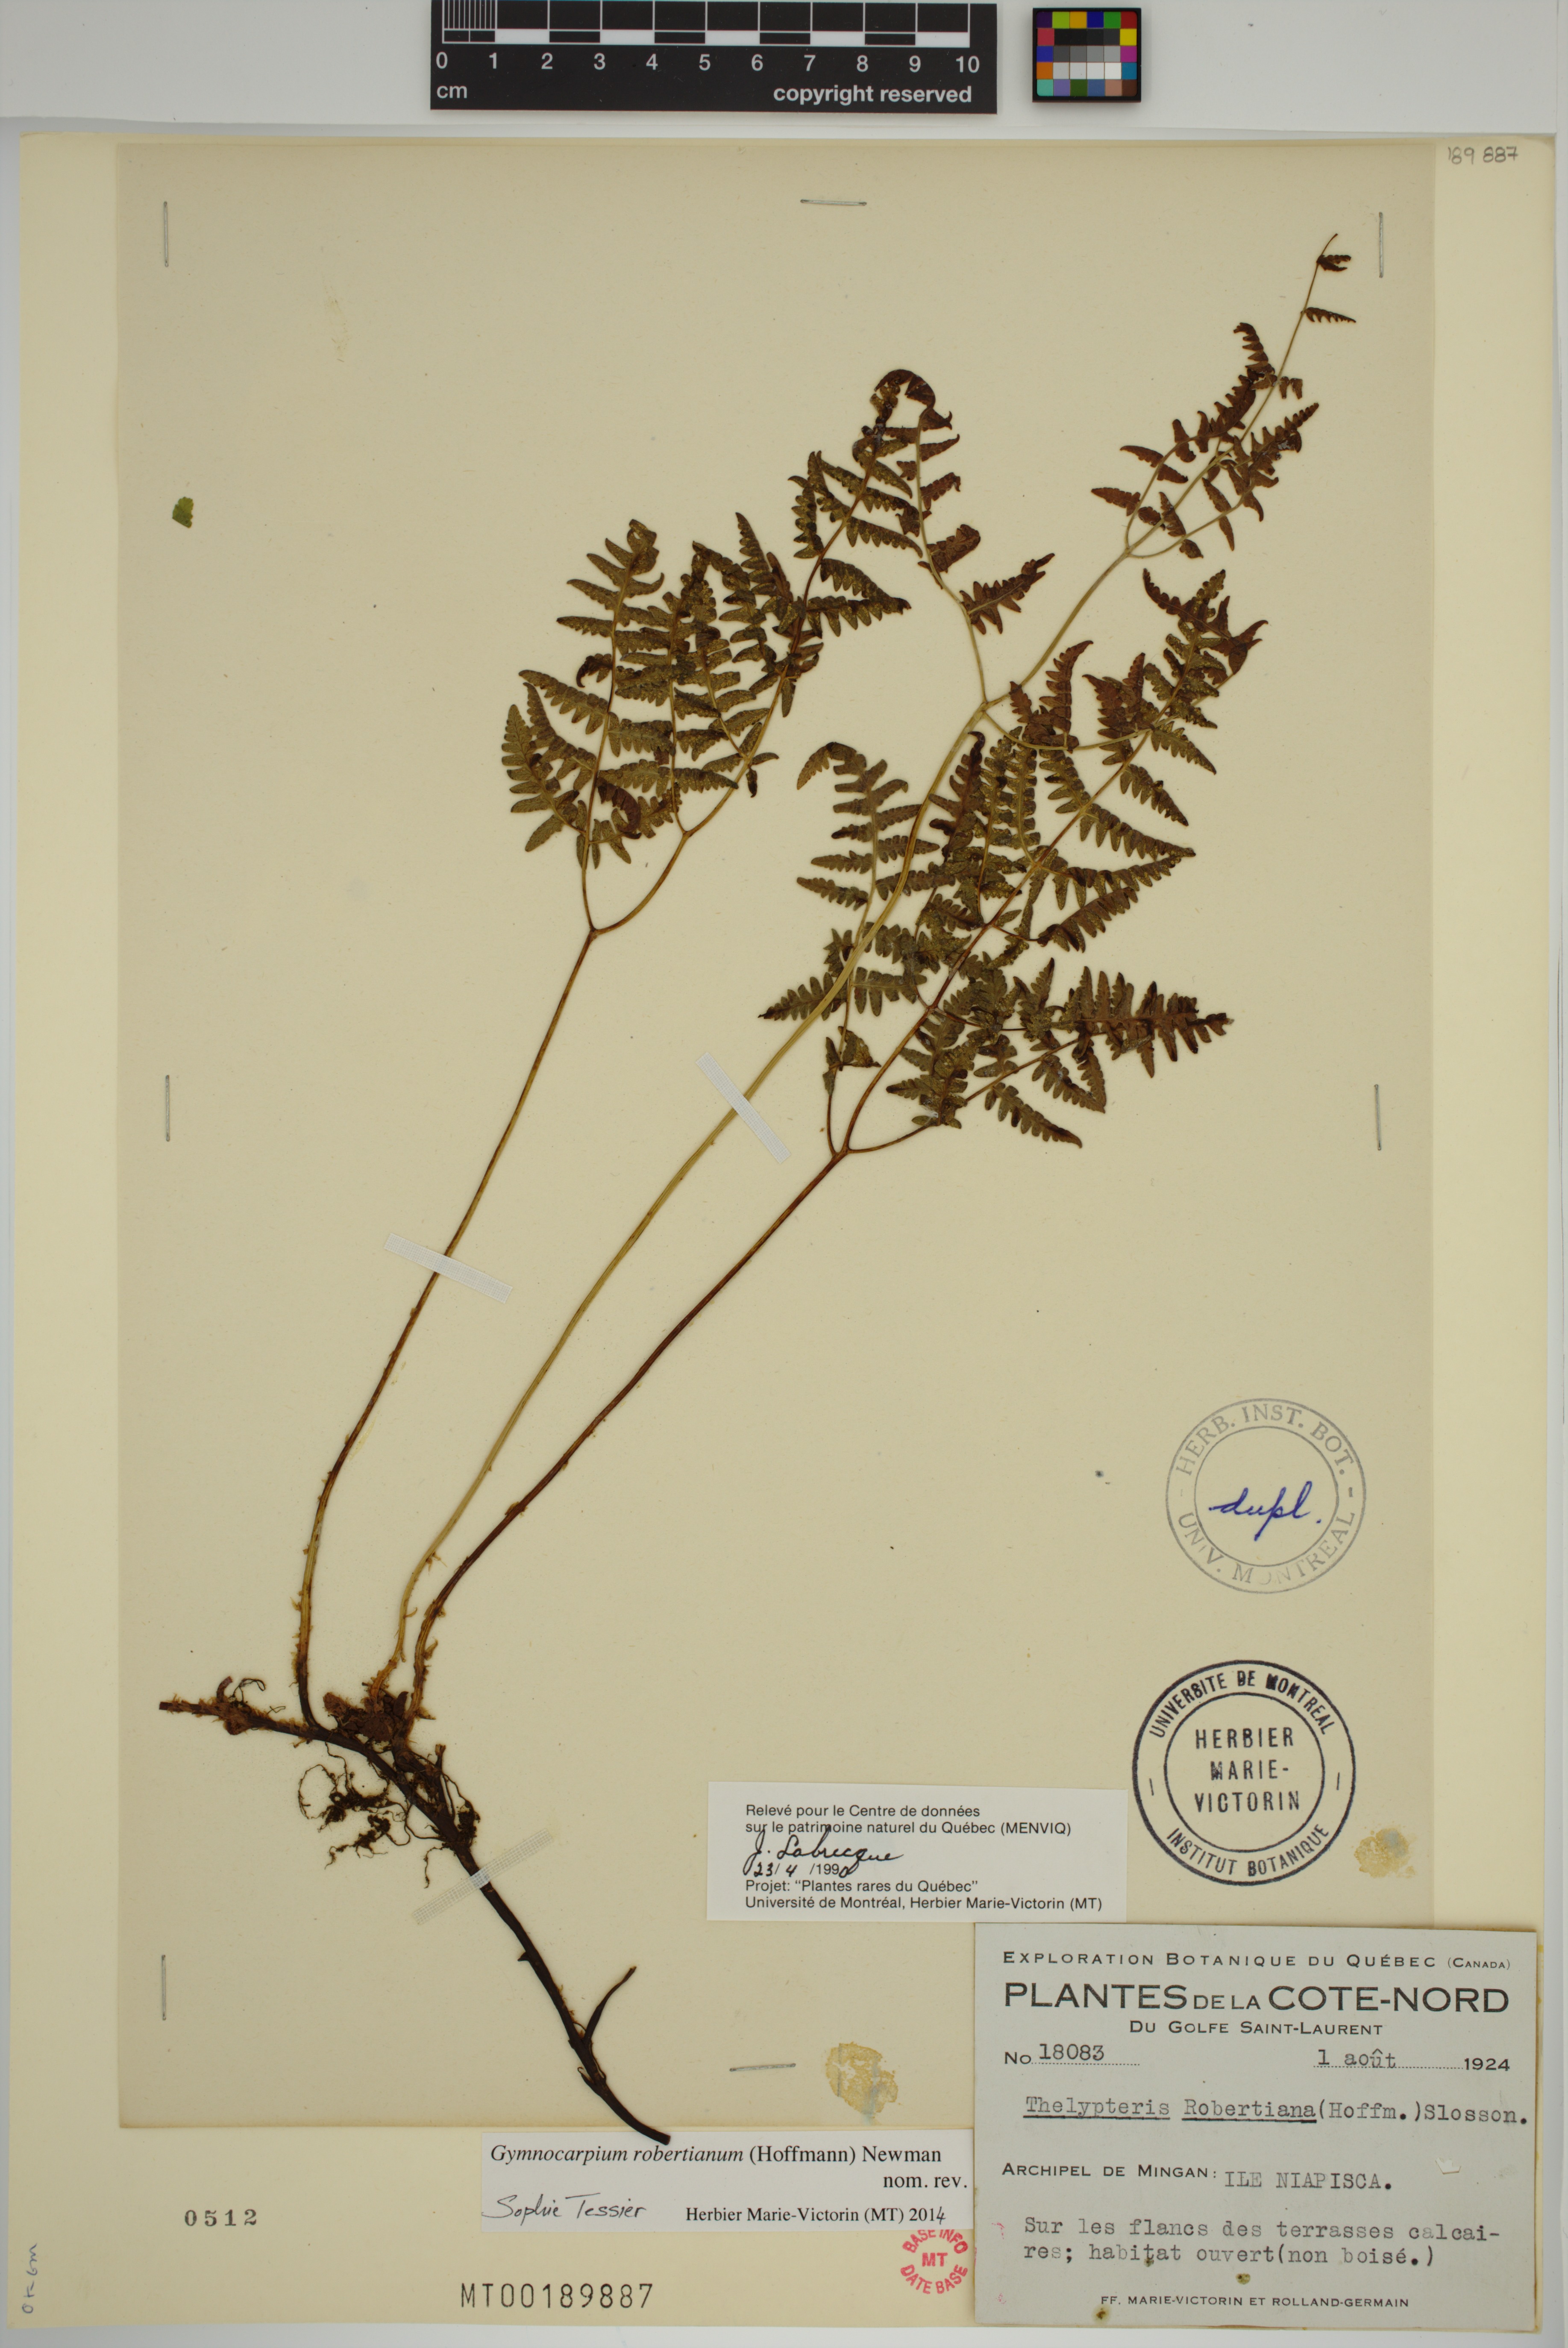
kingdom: Plantae
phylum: Tracheophyta
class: Polypodiopsida
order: Polypodiales
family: Cystopteridaceae
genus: Gymnocarpium
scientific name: Gymnocarpium robertianum
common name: Limestone fern
